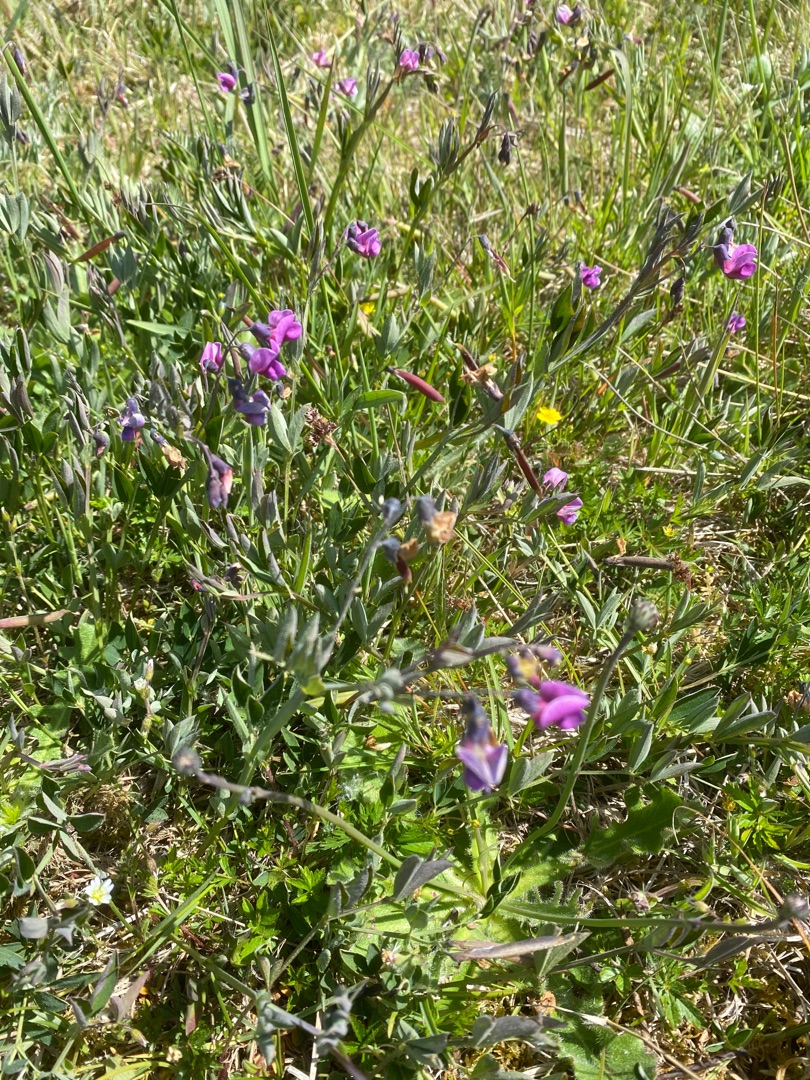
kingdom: Plantae
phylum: Tracheophyta
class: Magnoliopsida
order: Fabales
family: Fabaceae
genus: Lathyrus
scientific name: Lathyrus linifolius
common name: Krat-fladbælg
